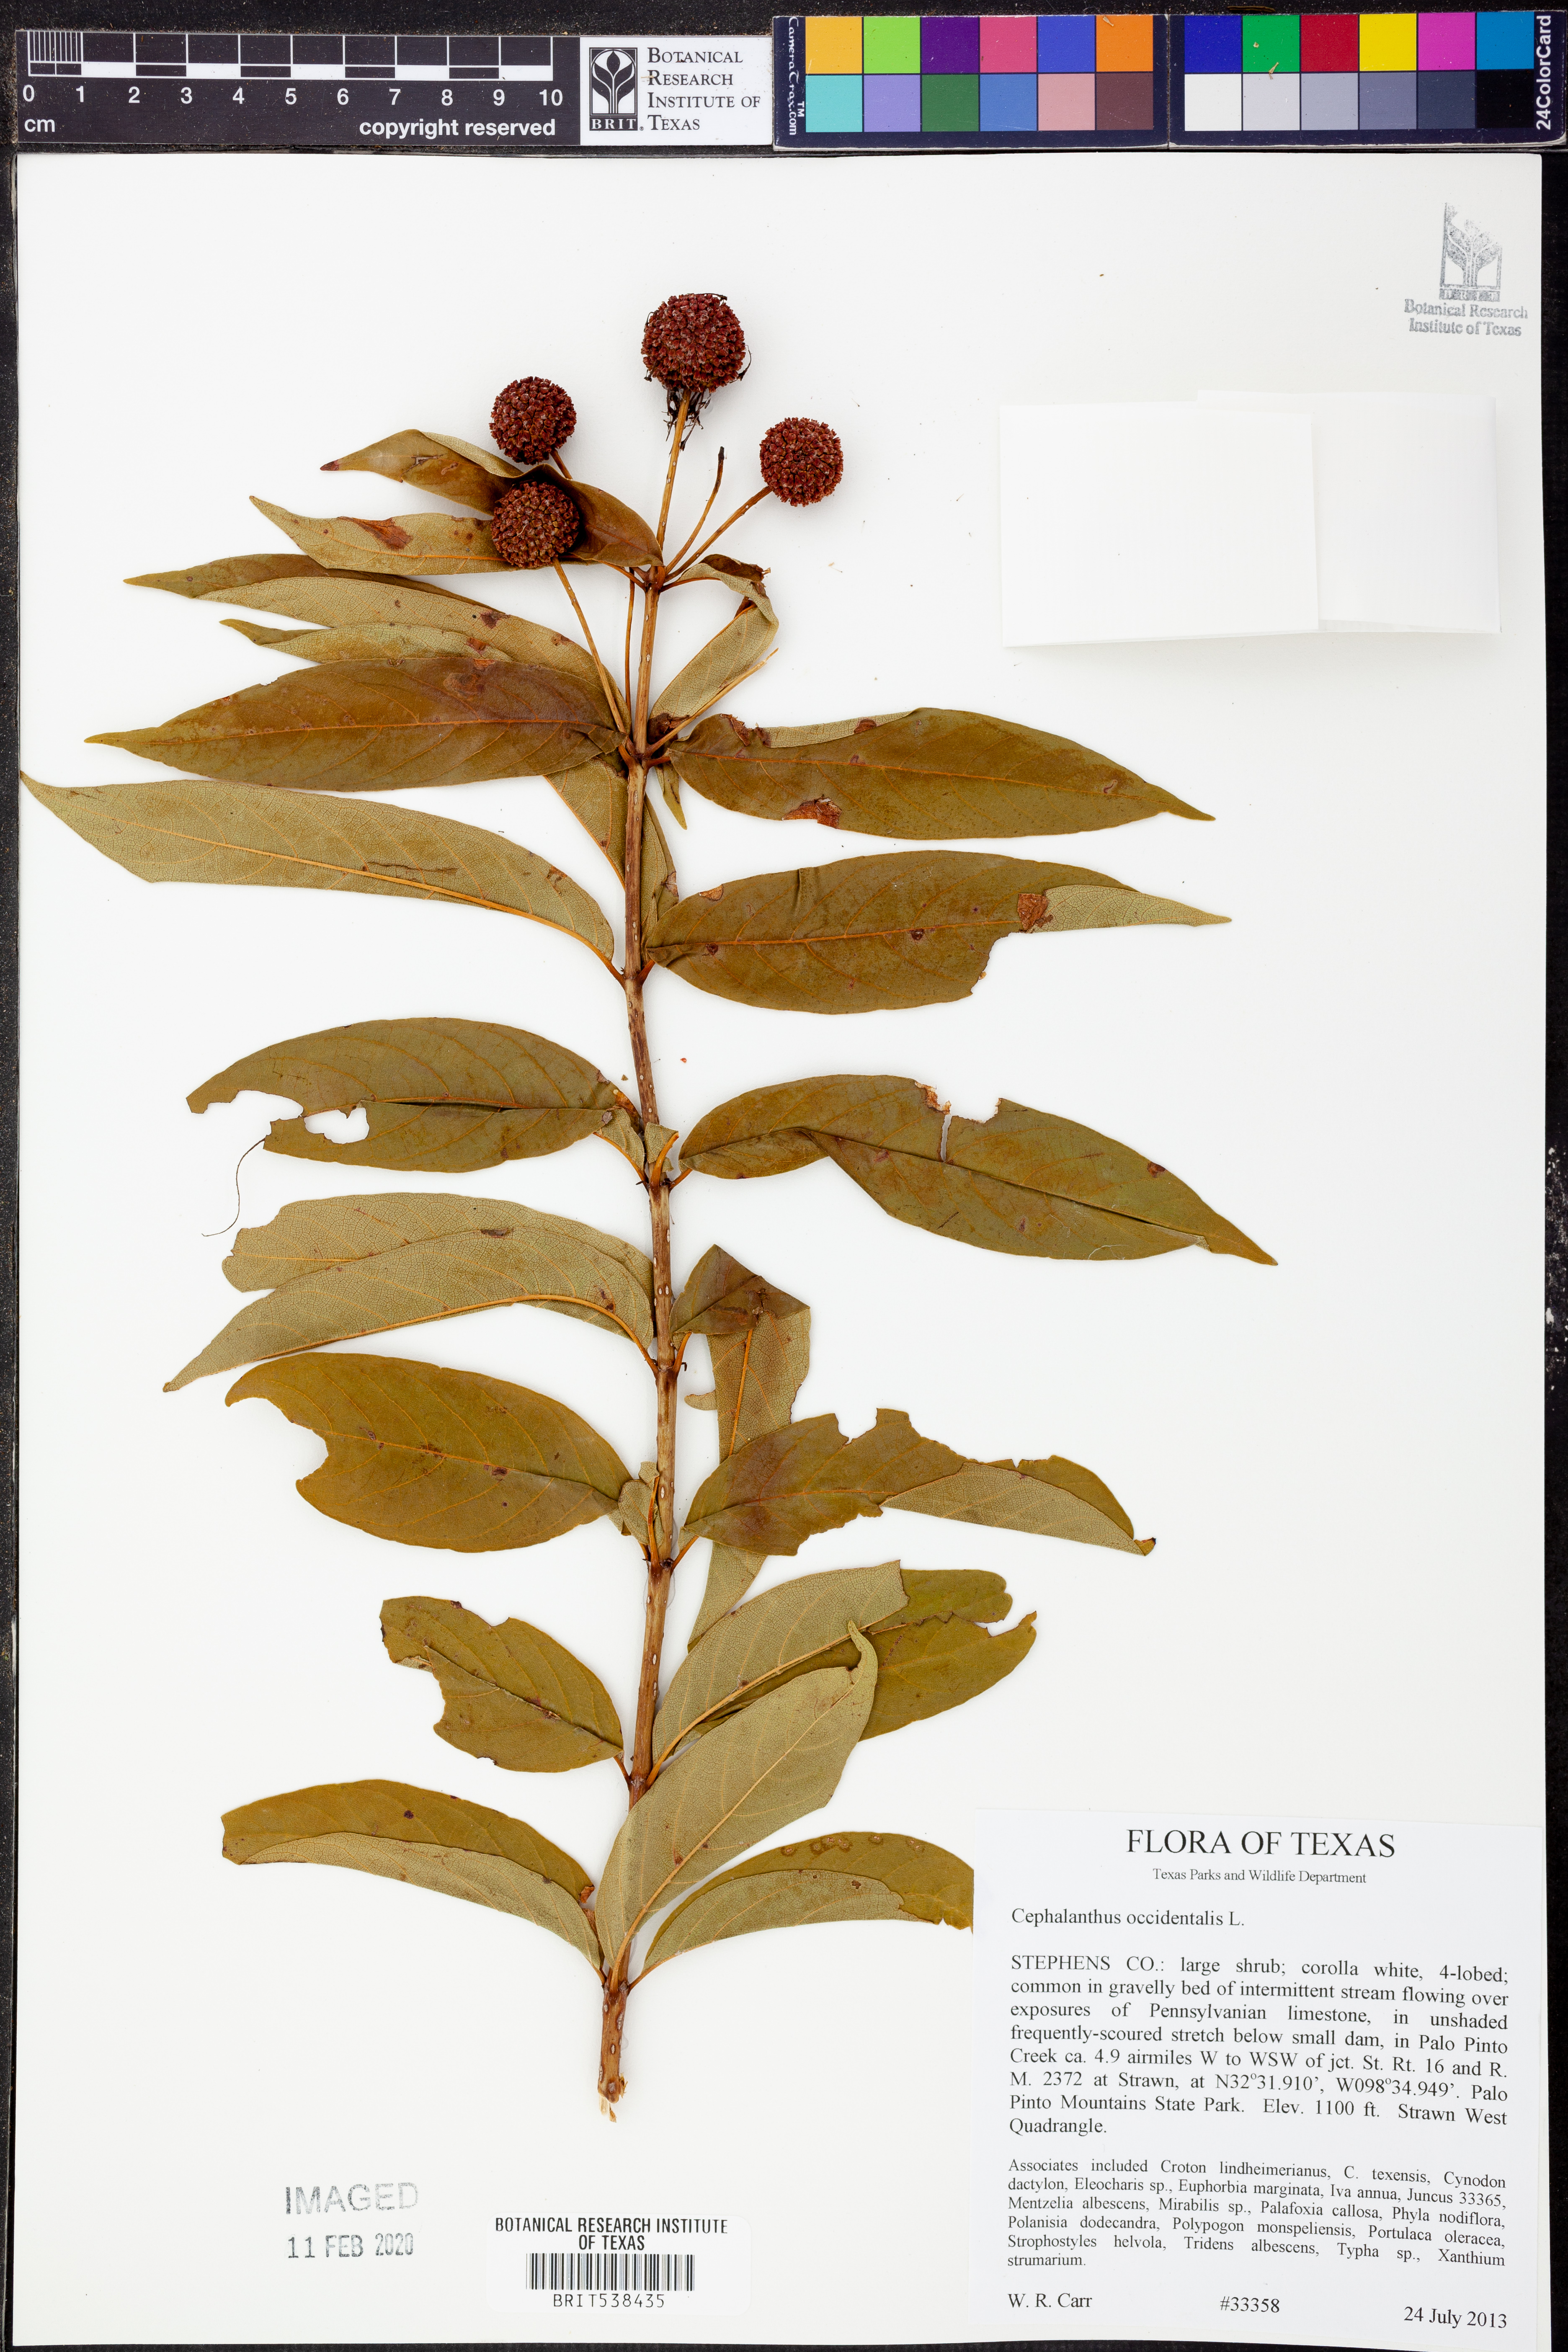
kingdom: Plantae
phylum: Tracheophyta
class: Magnoliopsida
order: Gentianales
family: Rubiaceae
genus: Cephalanthus
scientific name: Cephalanthus occidentalis
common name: Button-willow
